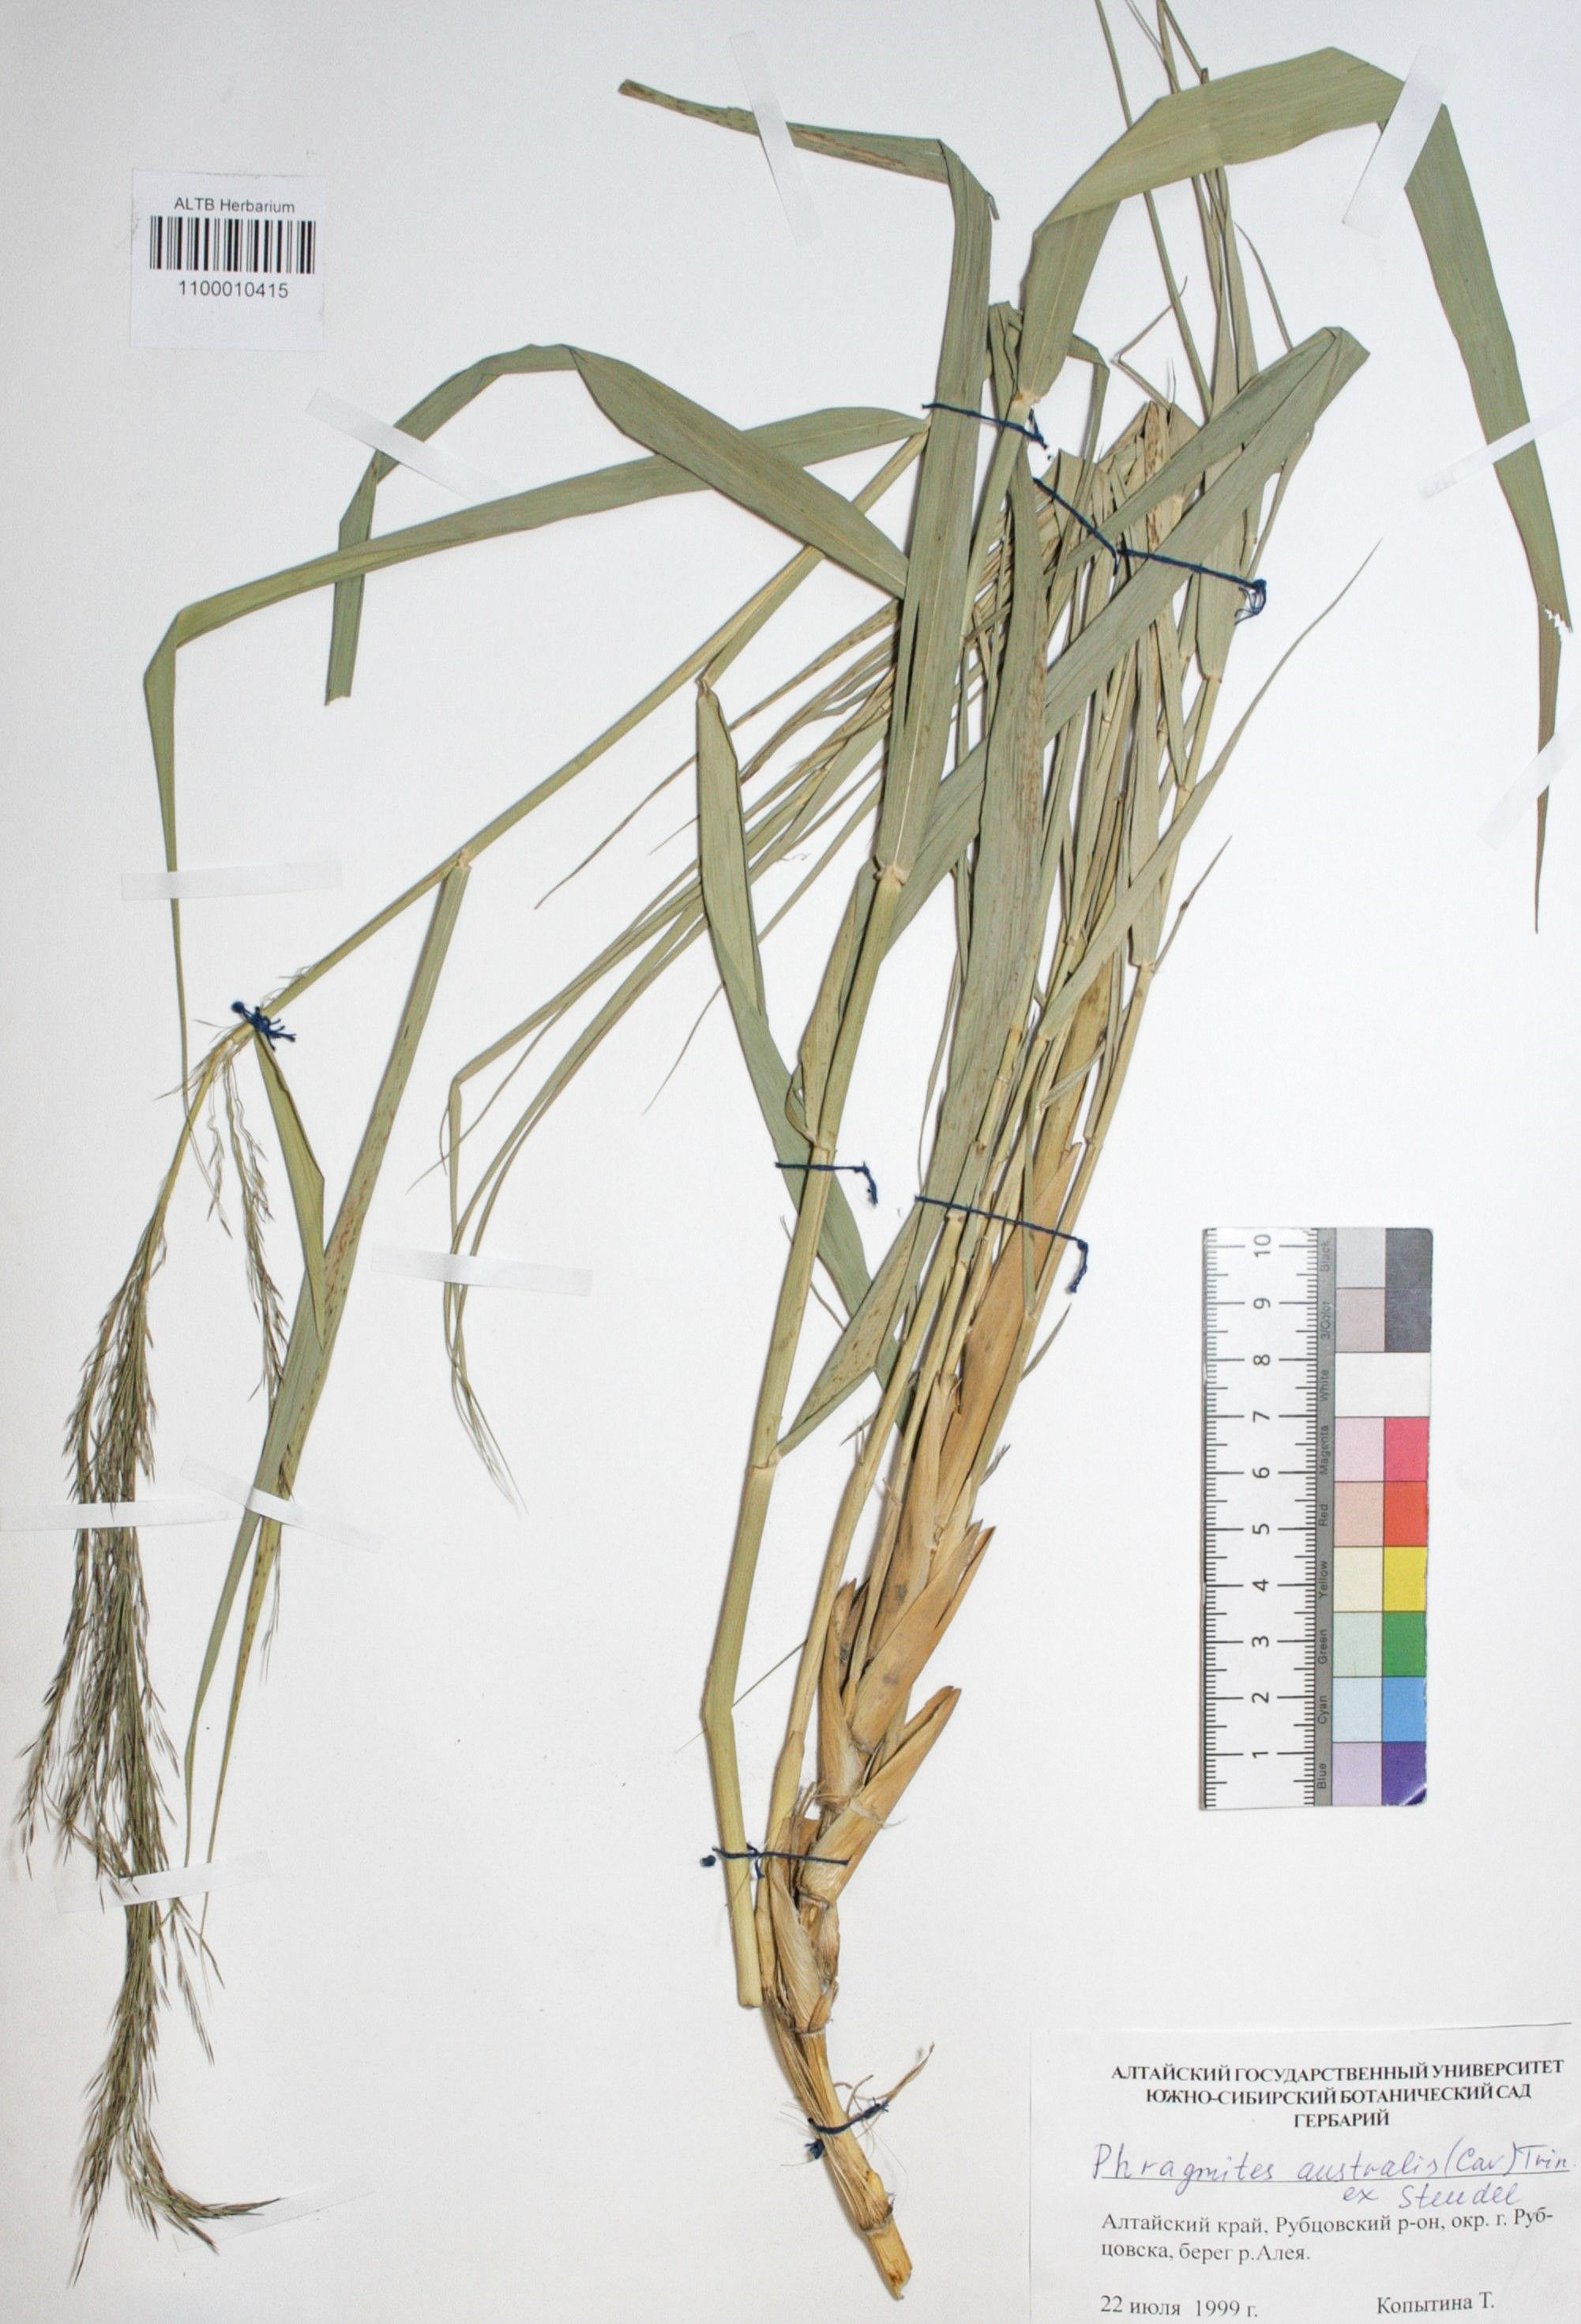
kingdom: Plantae
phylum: Tracheophyta
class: Liliopsida
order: Poales
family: Poaceae
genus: Phragmites
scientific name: Phragmites australis
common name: Common reed
